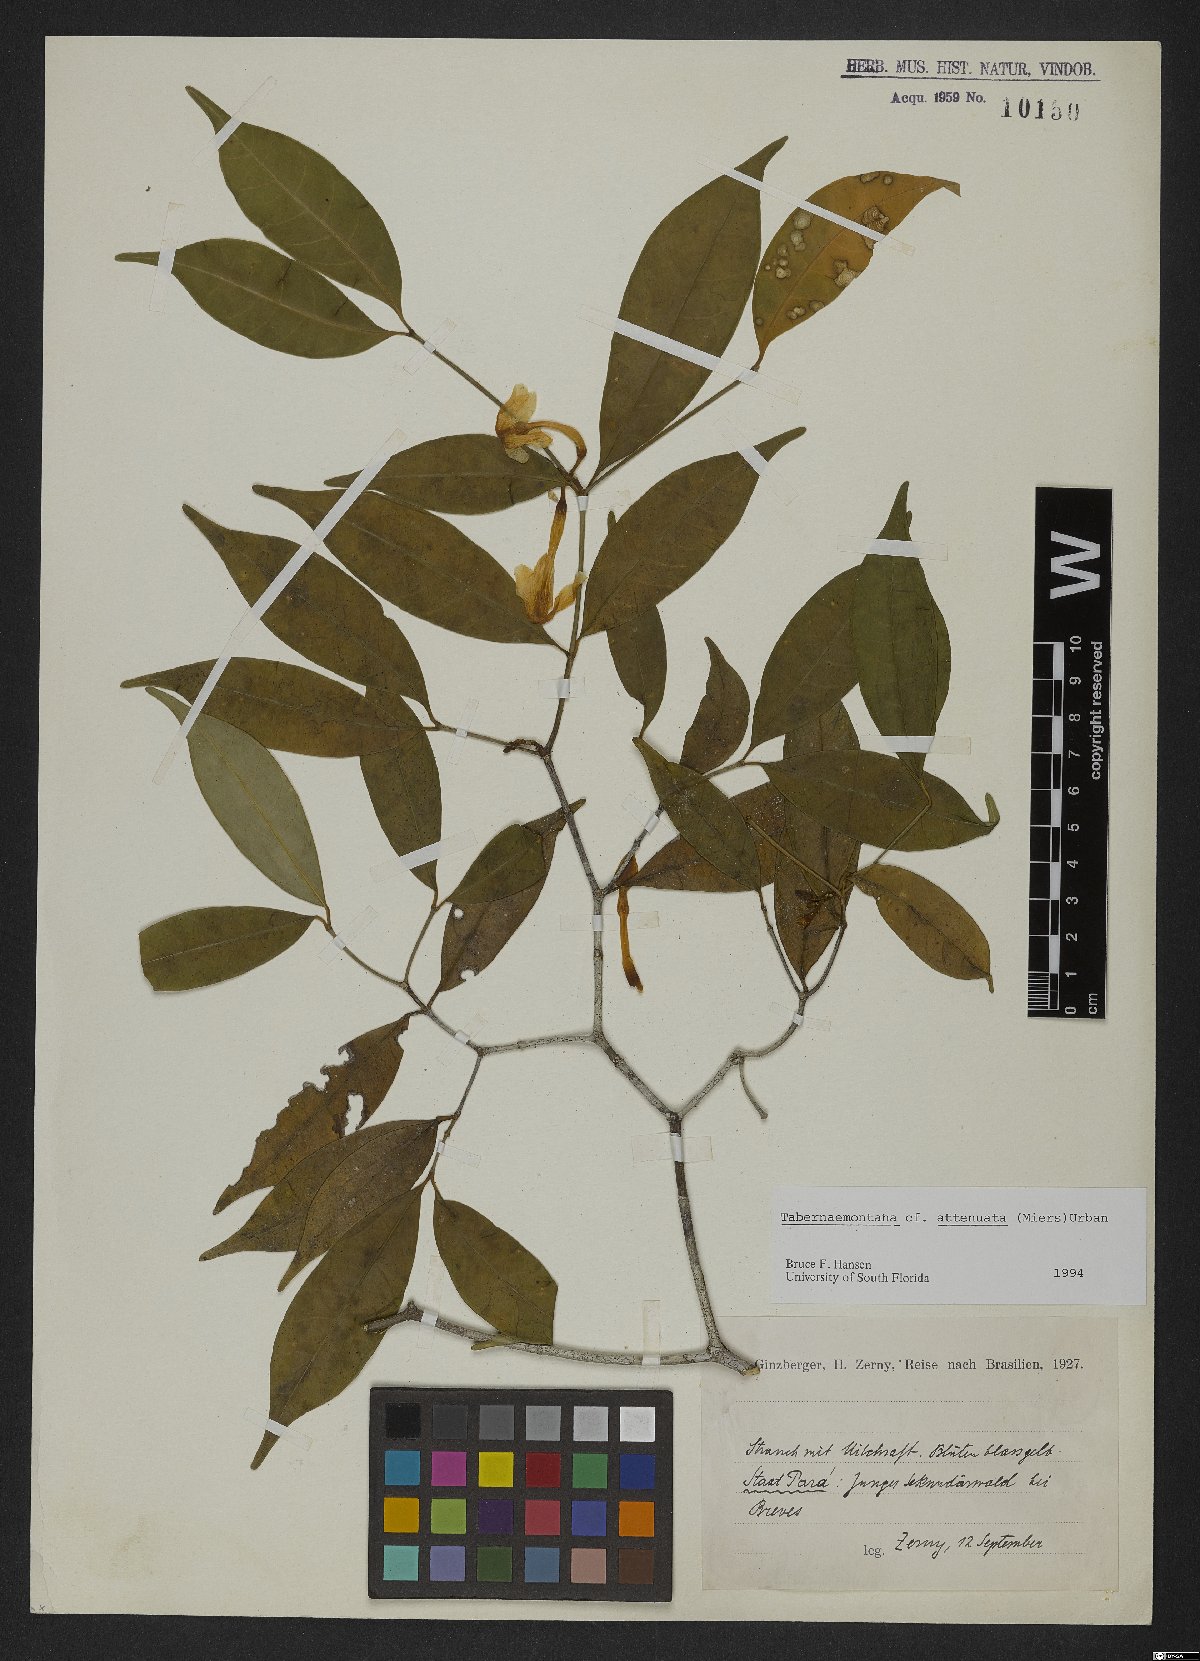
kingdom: Plantae
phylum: Tracheophyta
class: Magnoliopsida
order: Gentianales
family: Apocynaceae
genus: Tabernaemontana
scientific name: Tabernaemontana attenuata
